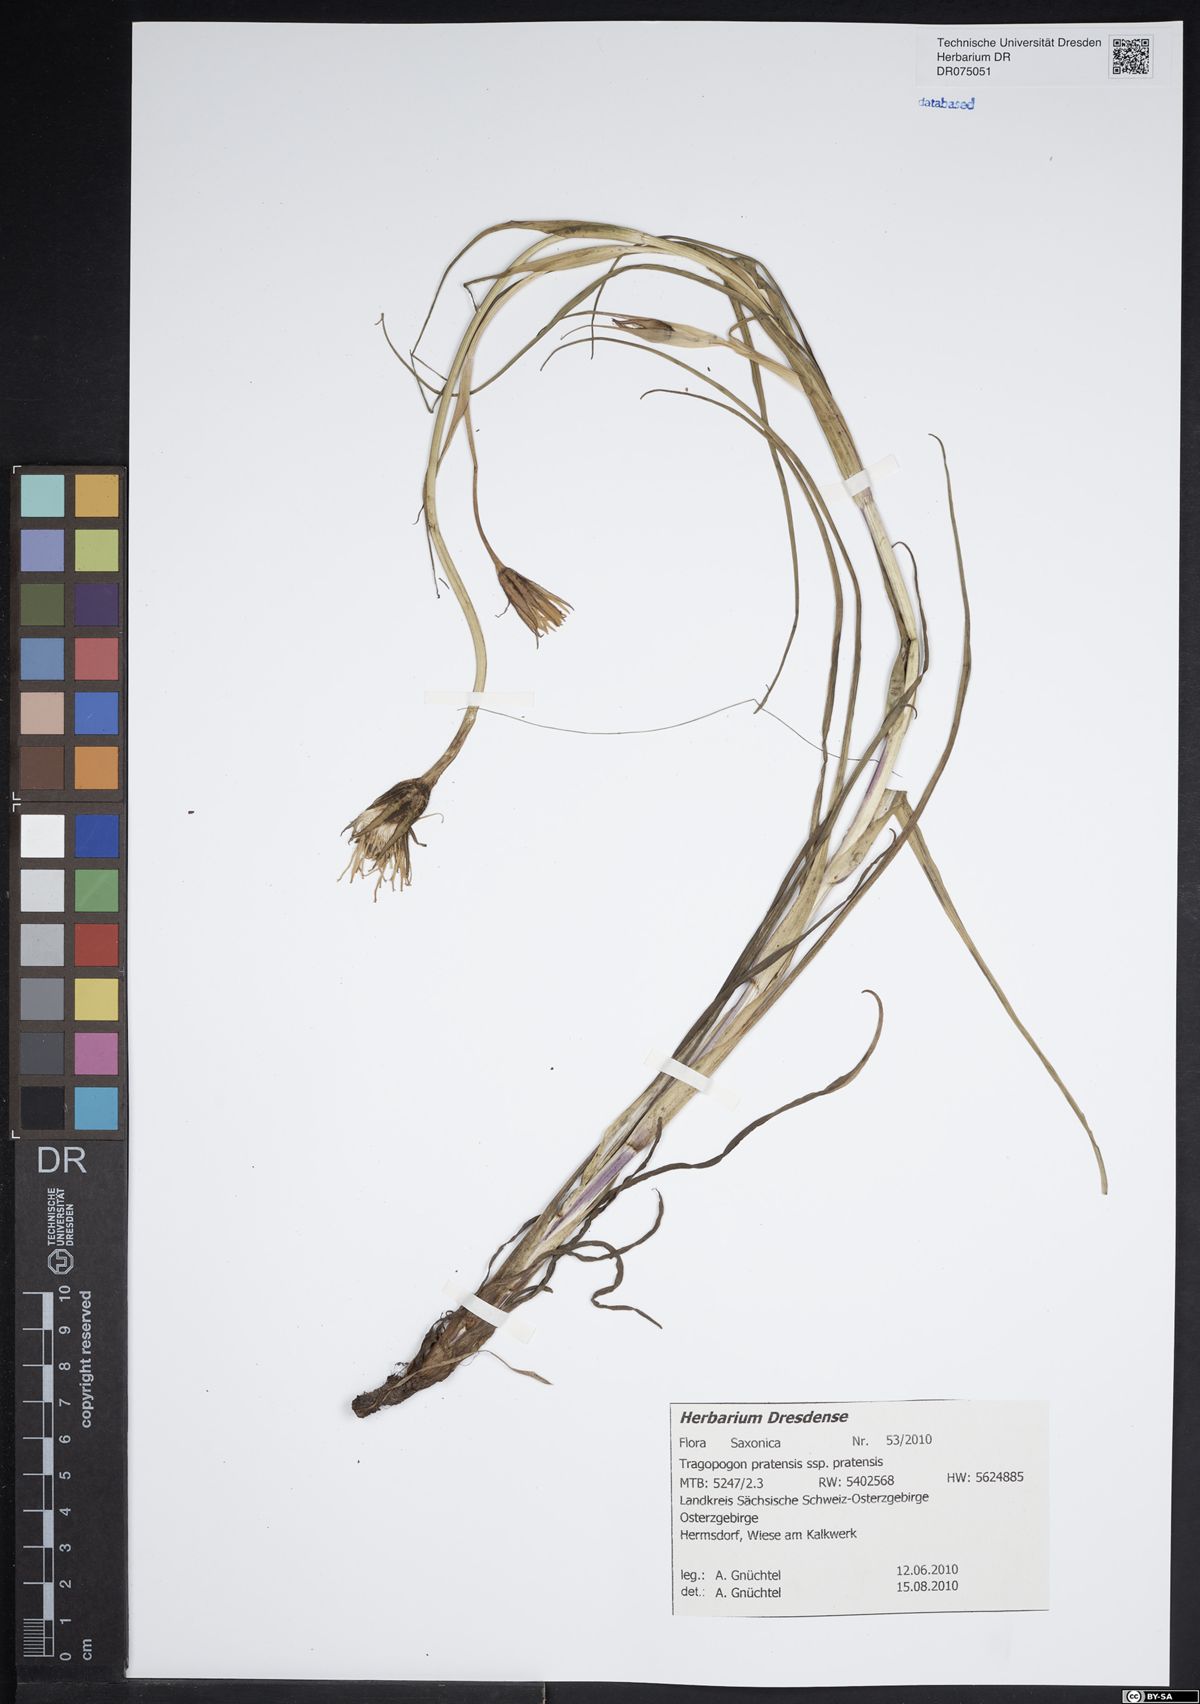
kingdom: Plantae
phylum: Tracheophyta
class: Magnoliopsida
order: Asterales
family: Asteraceae
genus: Tragopogon
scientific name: Tragopogon pratensis
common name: Goat's-beard
